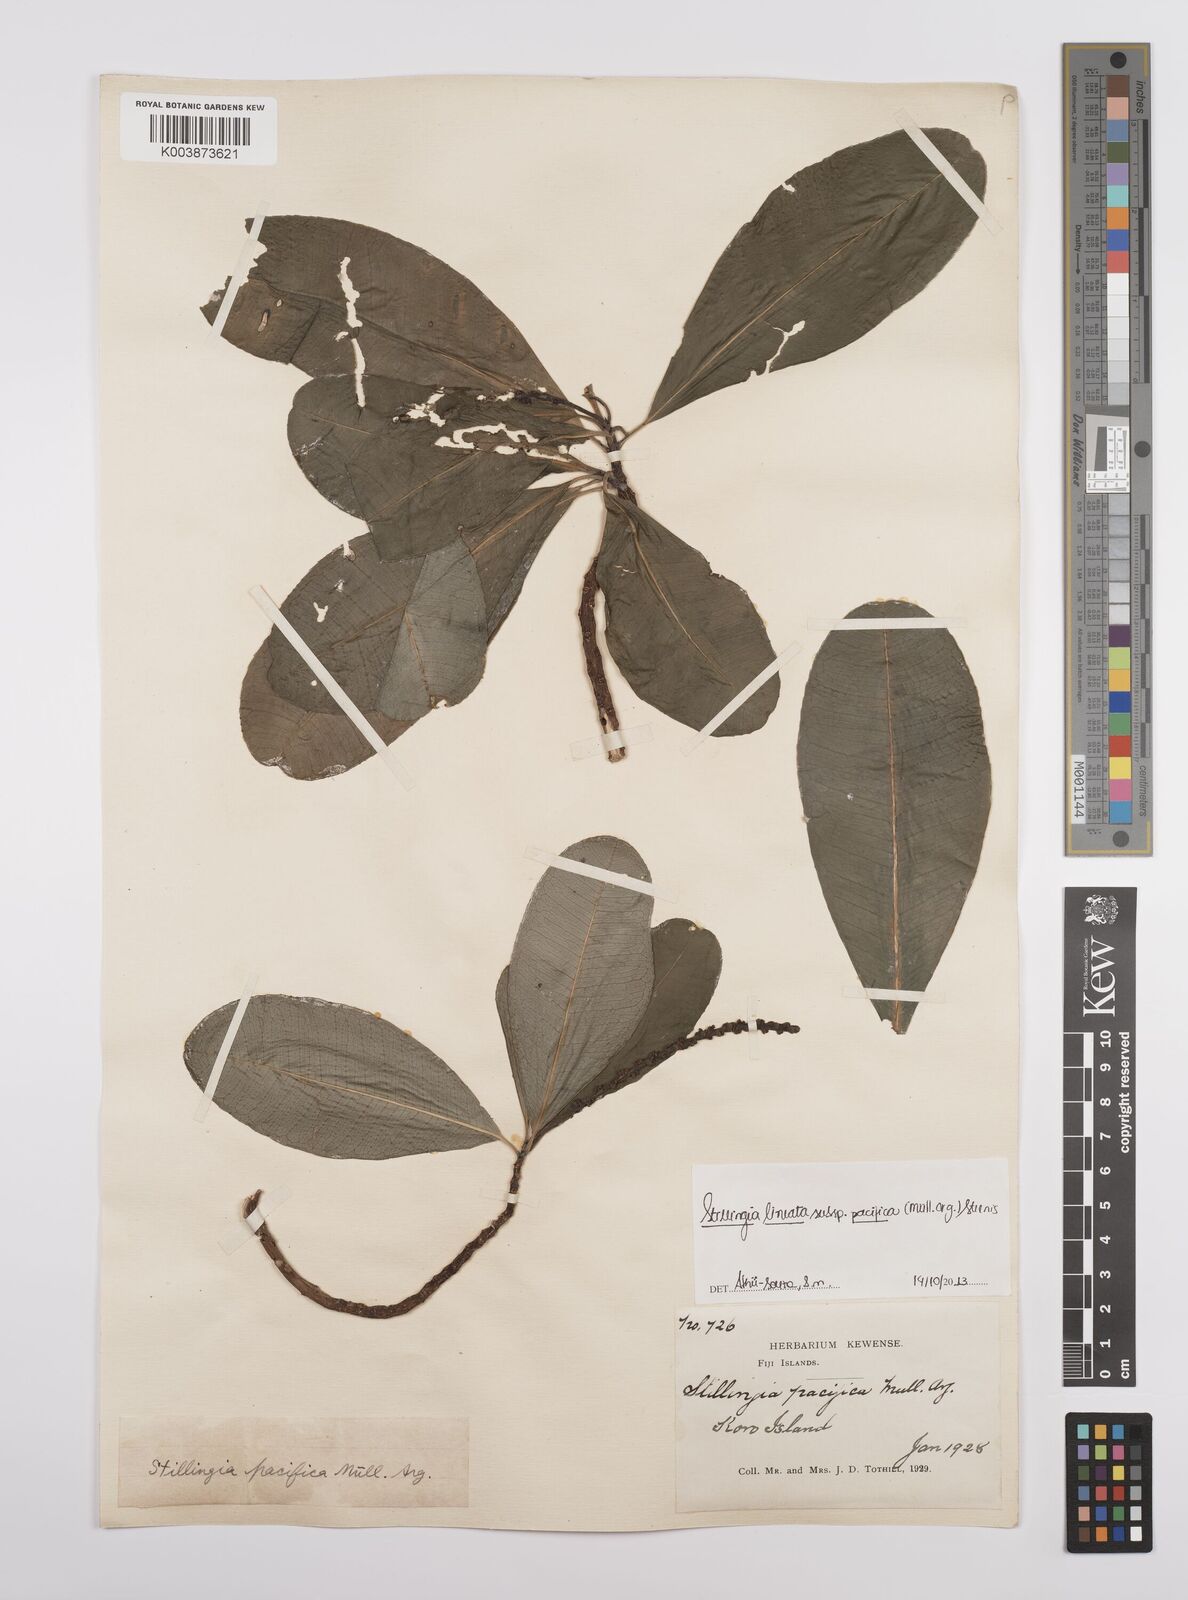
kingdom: Plantae
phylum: Tracheophyta
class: Magnoliopsida
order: Malpighiales
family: Euphorbiaceae
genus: Stillingia
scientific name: Stillingia lineata
